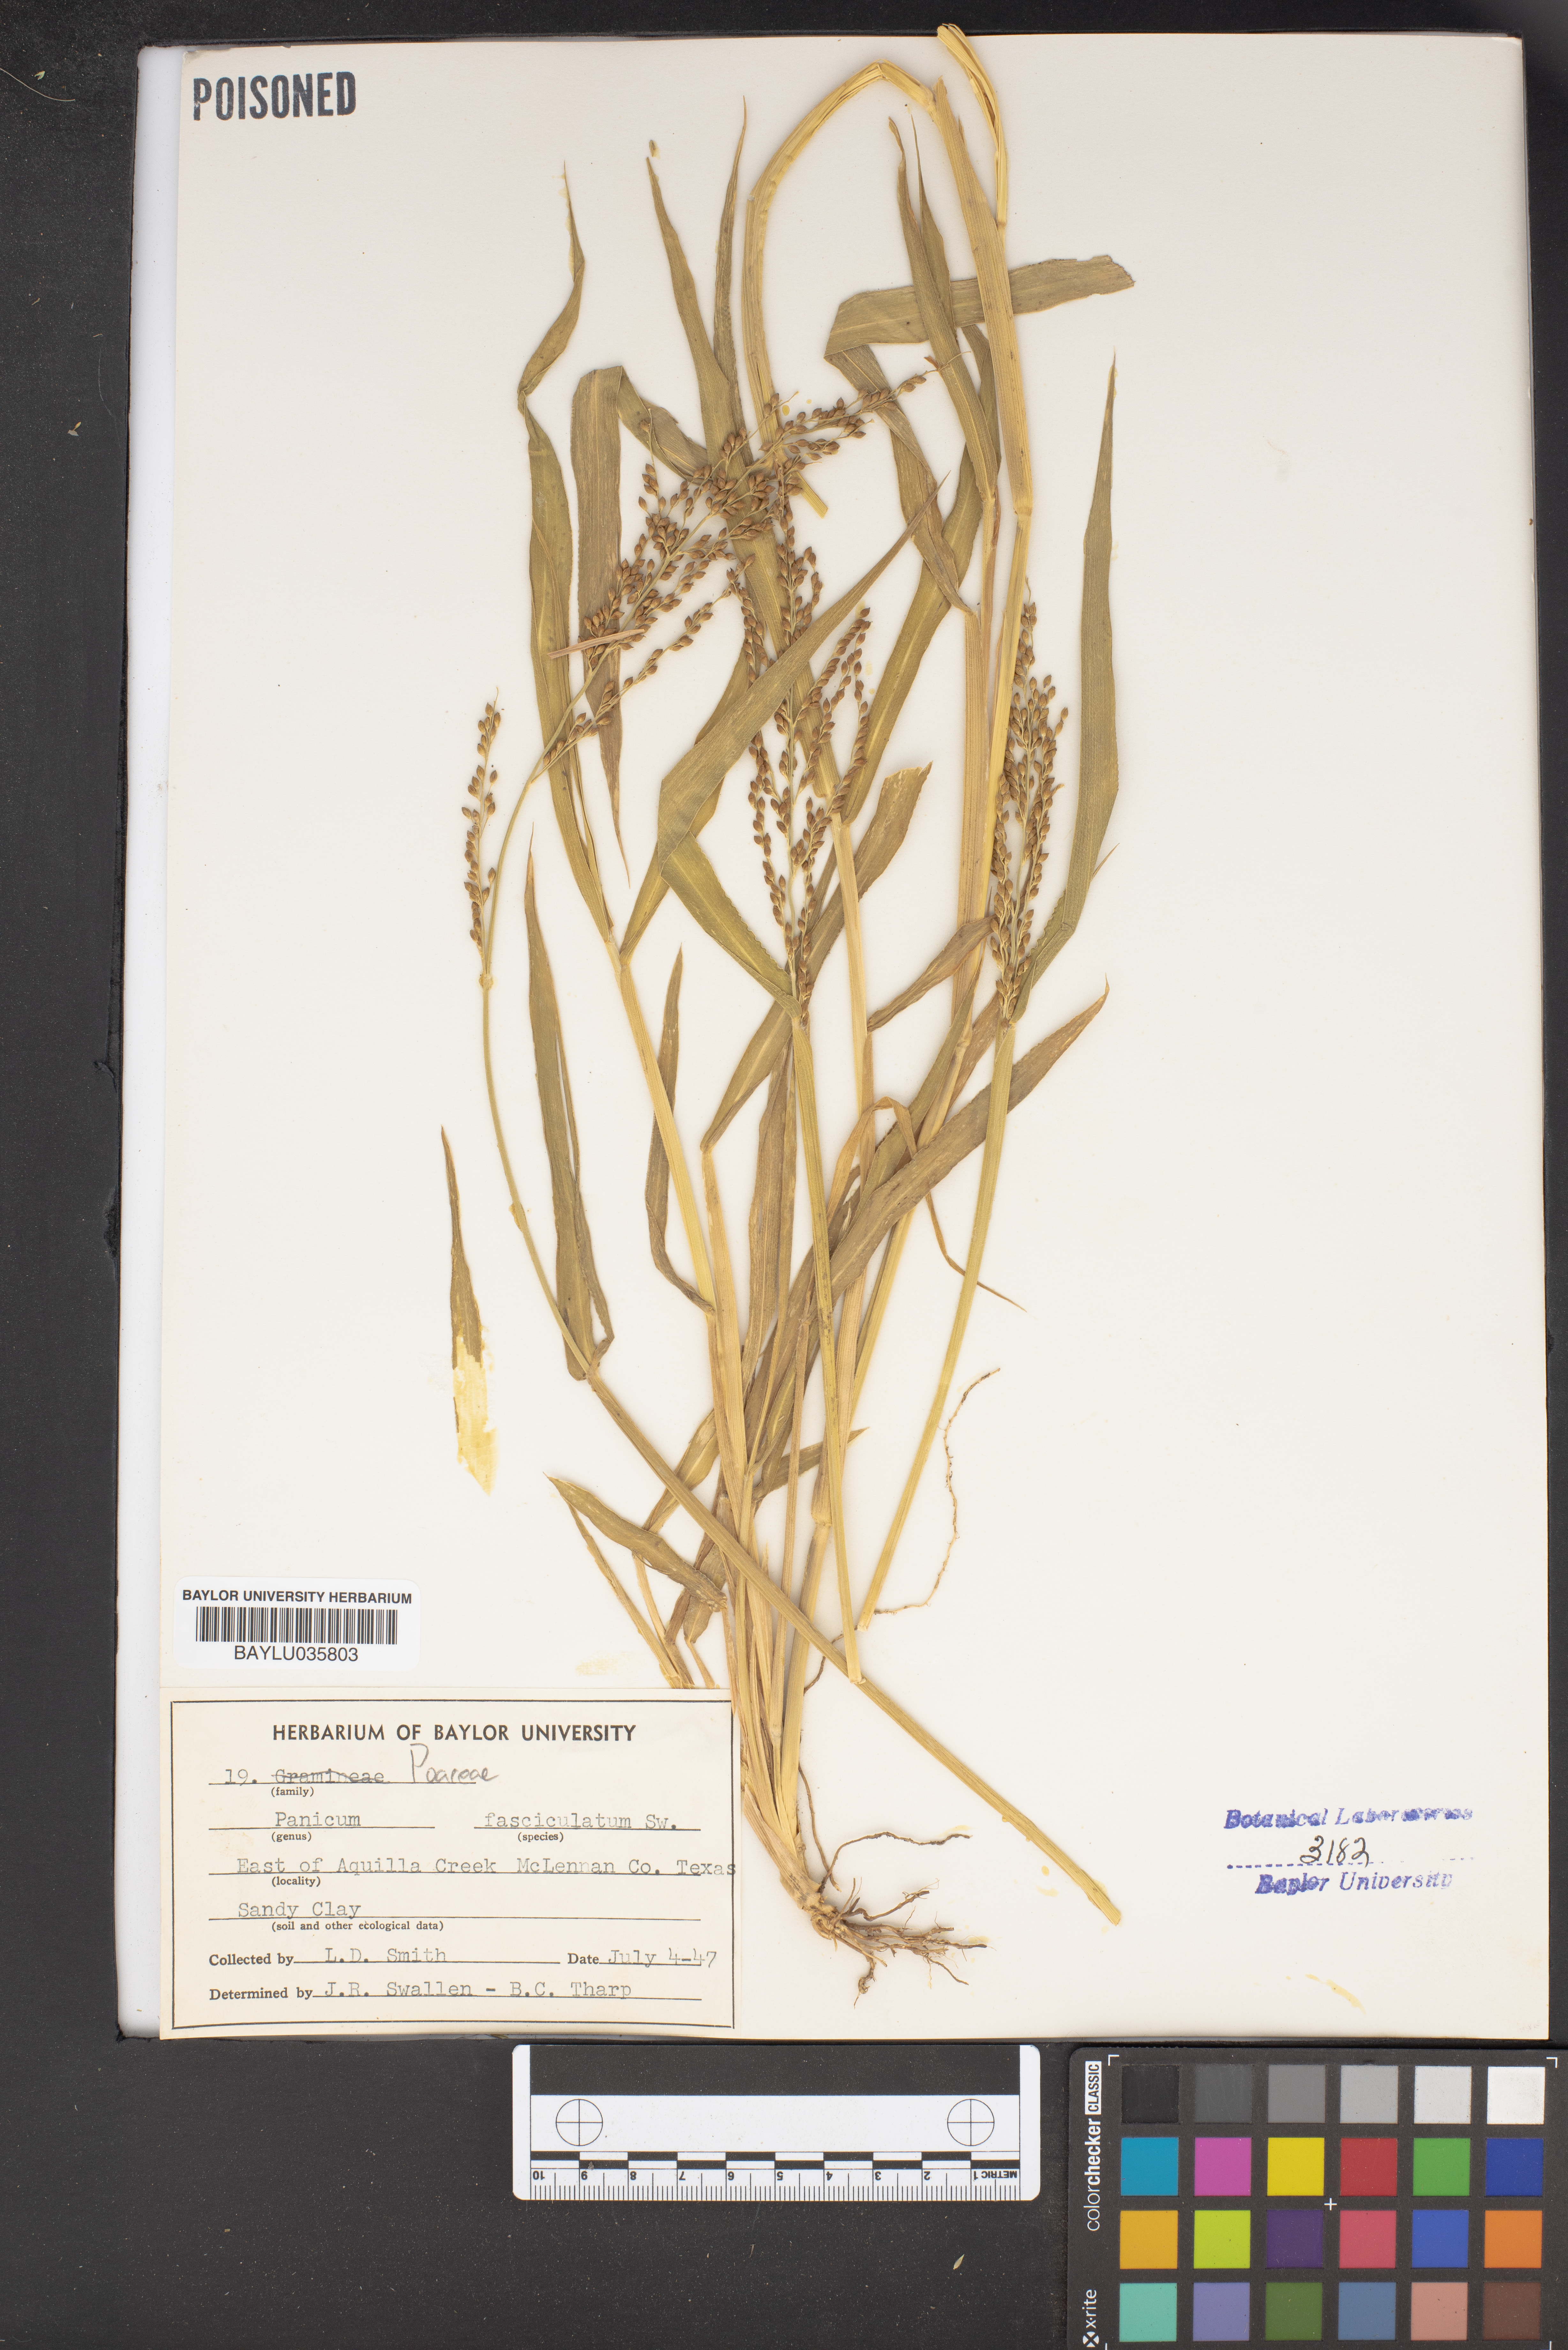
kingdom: Plantae
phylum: Tracheophyta
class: Liliopsida
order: Poales
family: Poaceae
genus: Urochloa
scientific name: Urochloa fusca
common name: Browntop signal grass
